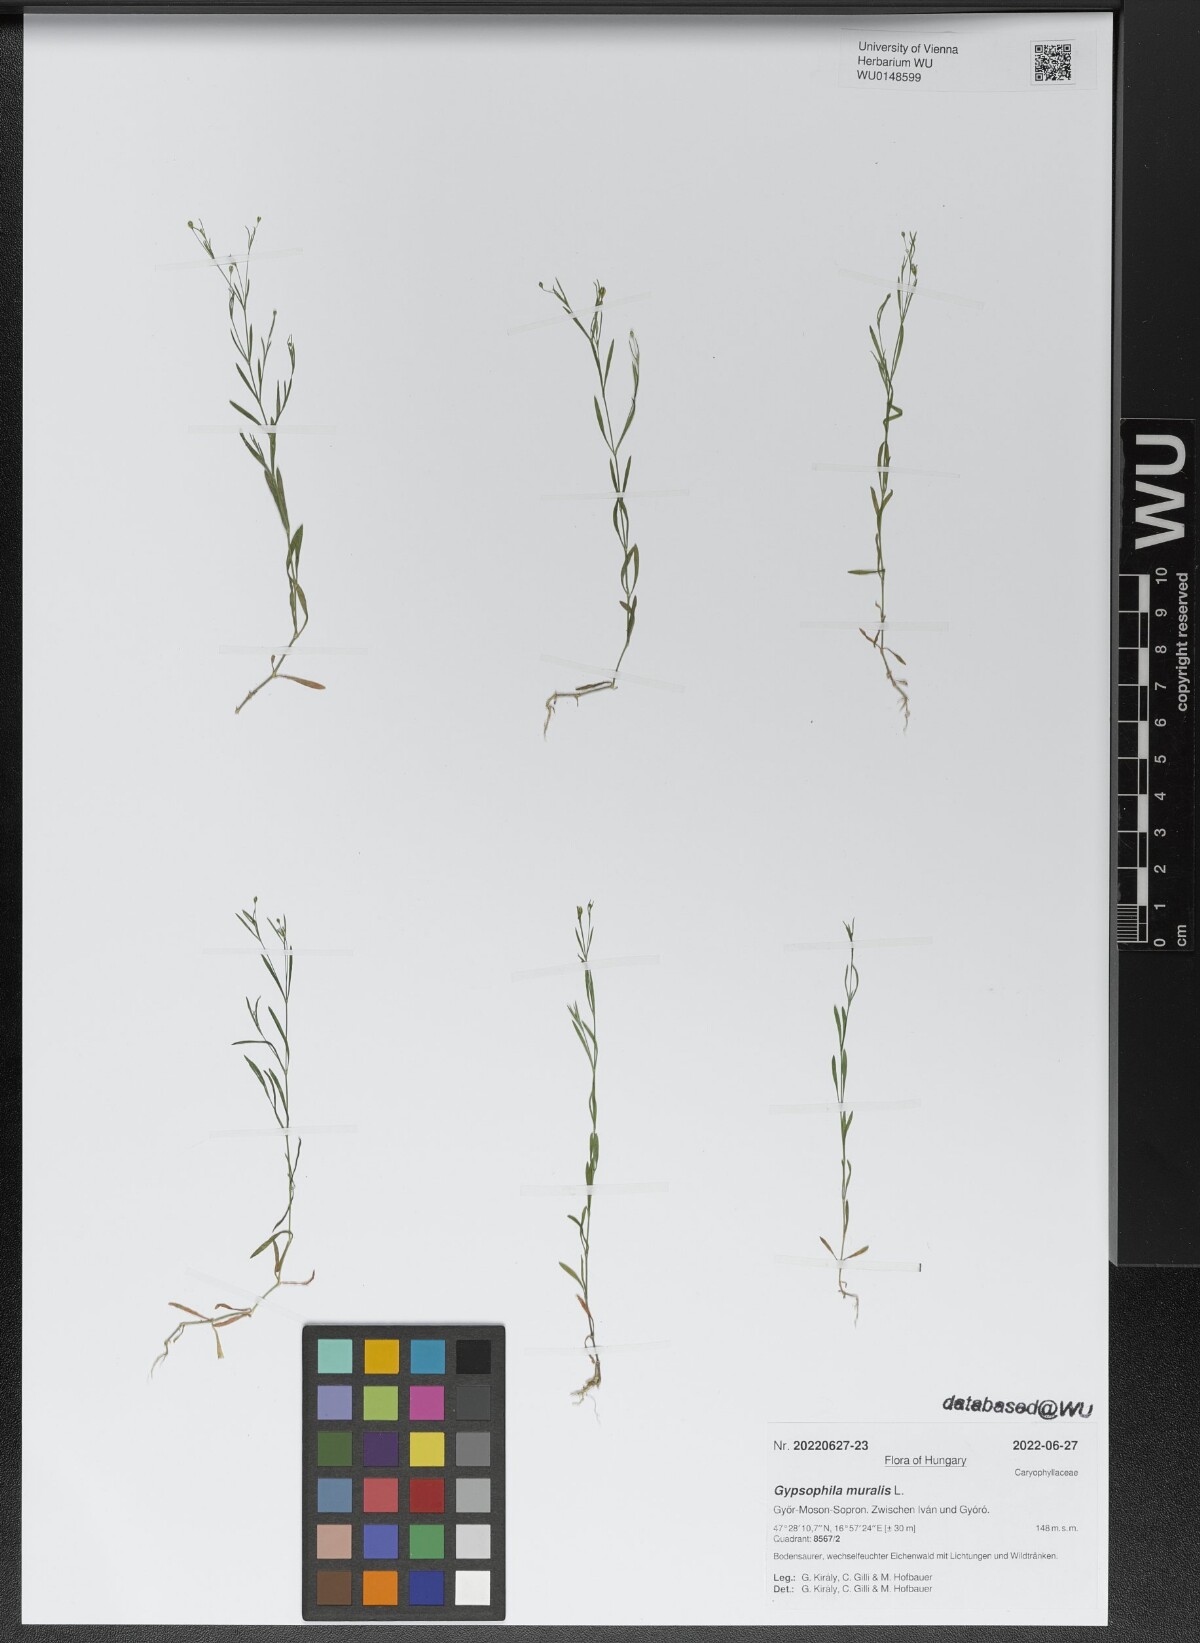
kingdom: Plantae
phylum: Tracheophyta
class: Magnoliopsida
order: Caryophyllales
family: Caryophyllaceae
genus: Psammophiliella
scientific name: Psammophiliella muralis
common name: Cushion baby's-breath
